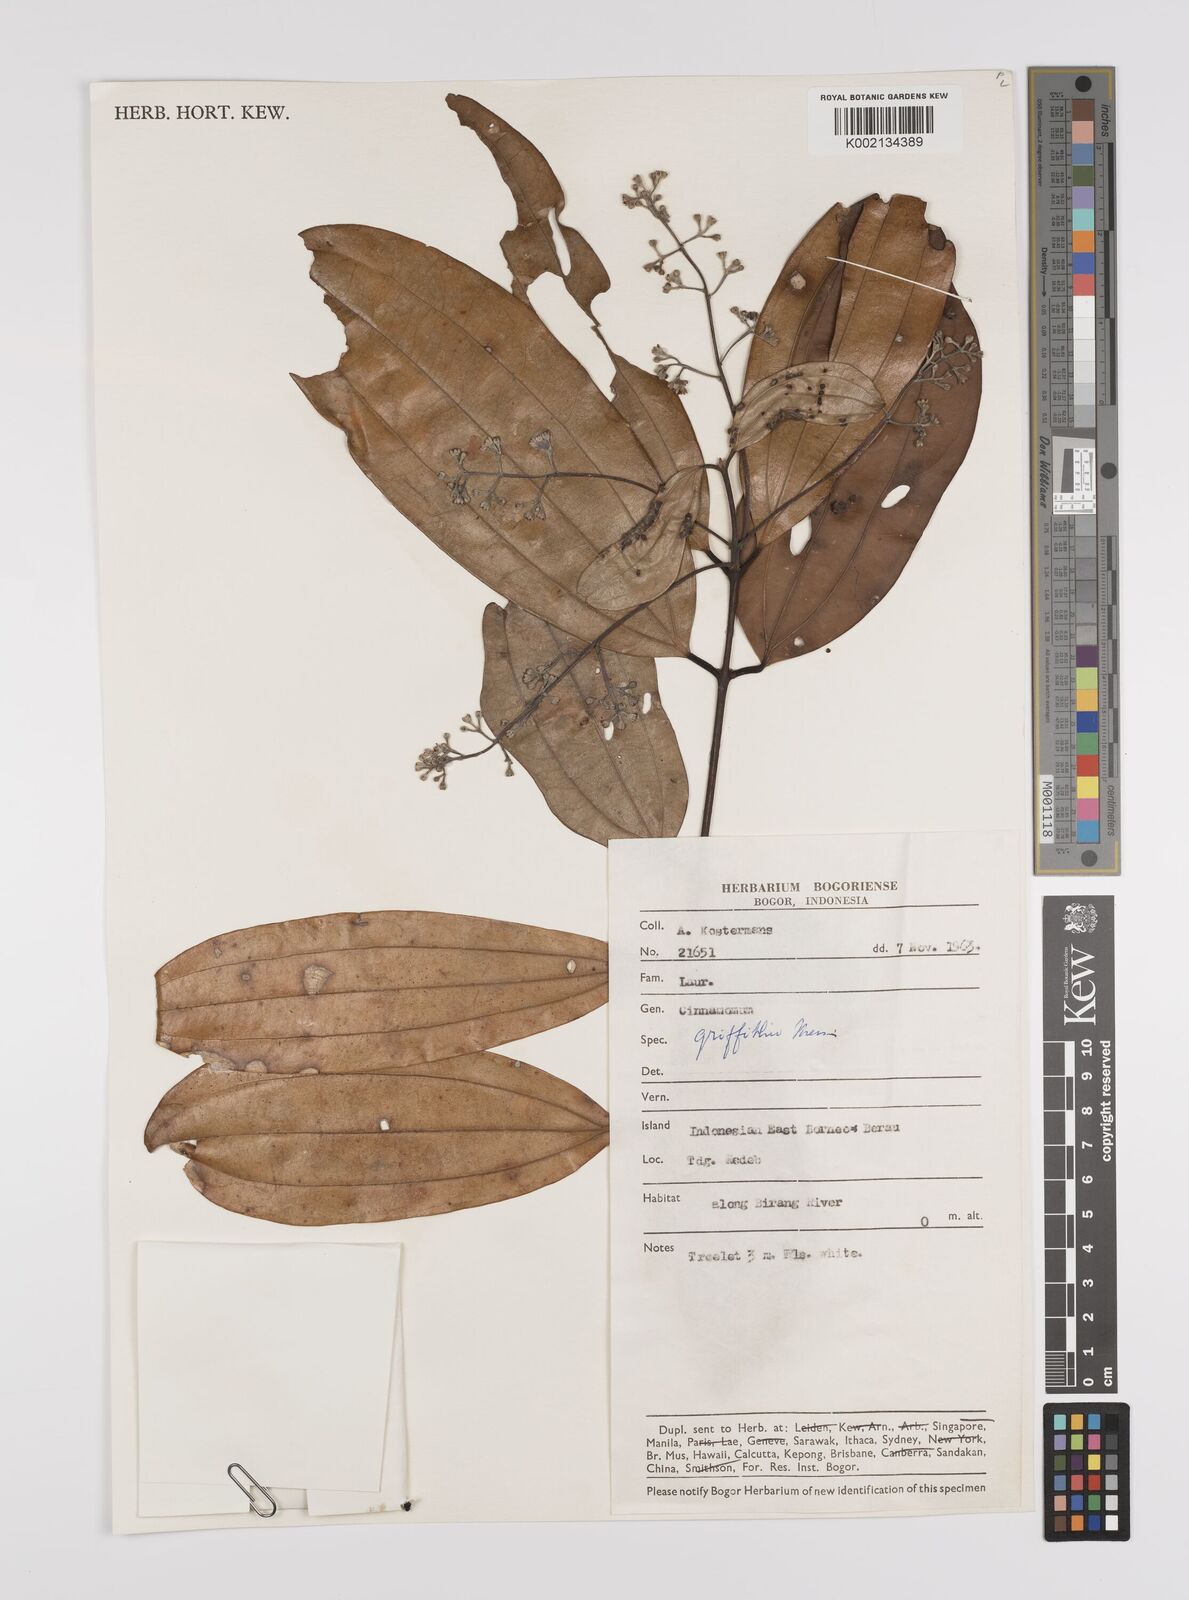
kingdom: Plantae
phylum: Tracheophyta
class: Magnoliopsida
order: Laurales
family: Lauraceae
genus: Cinnamomum
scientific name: Cinnamomum iners
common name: Wild cinnamon
